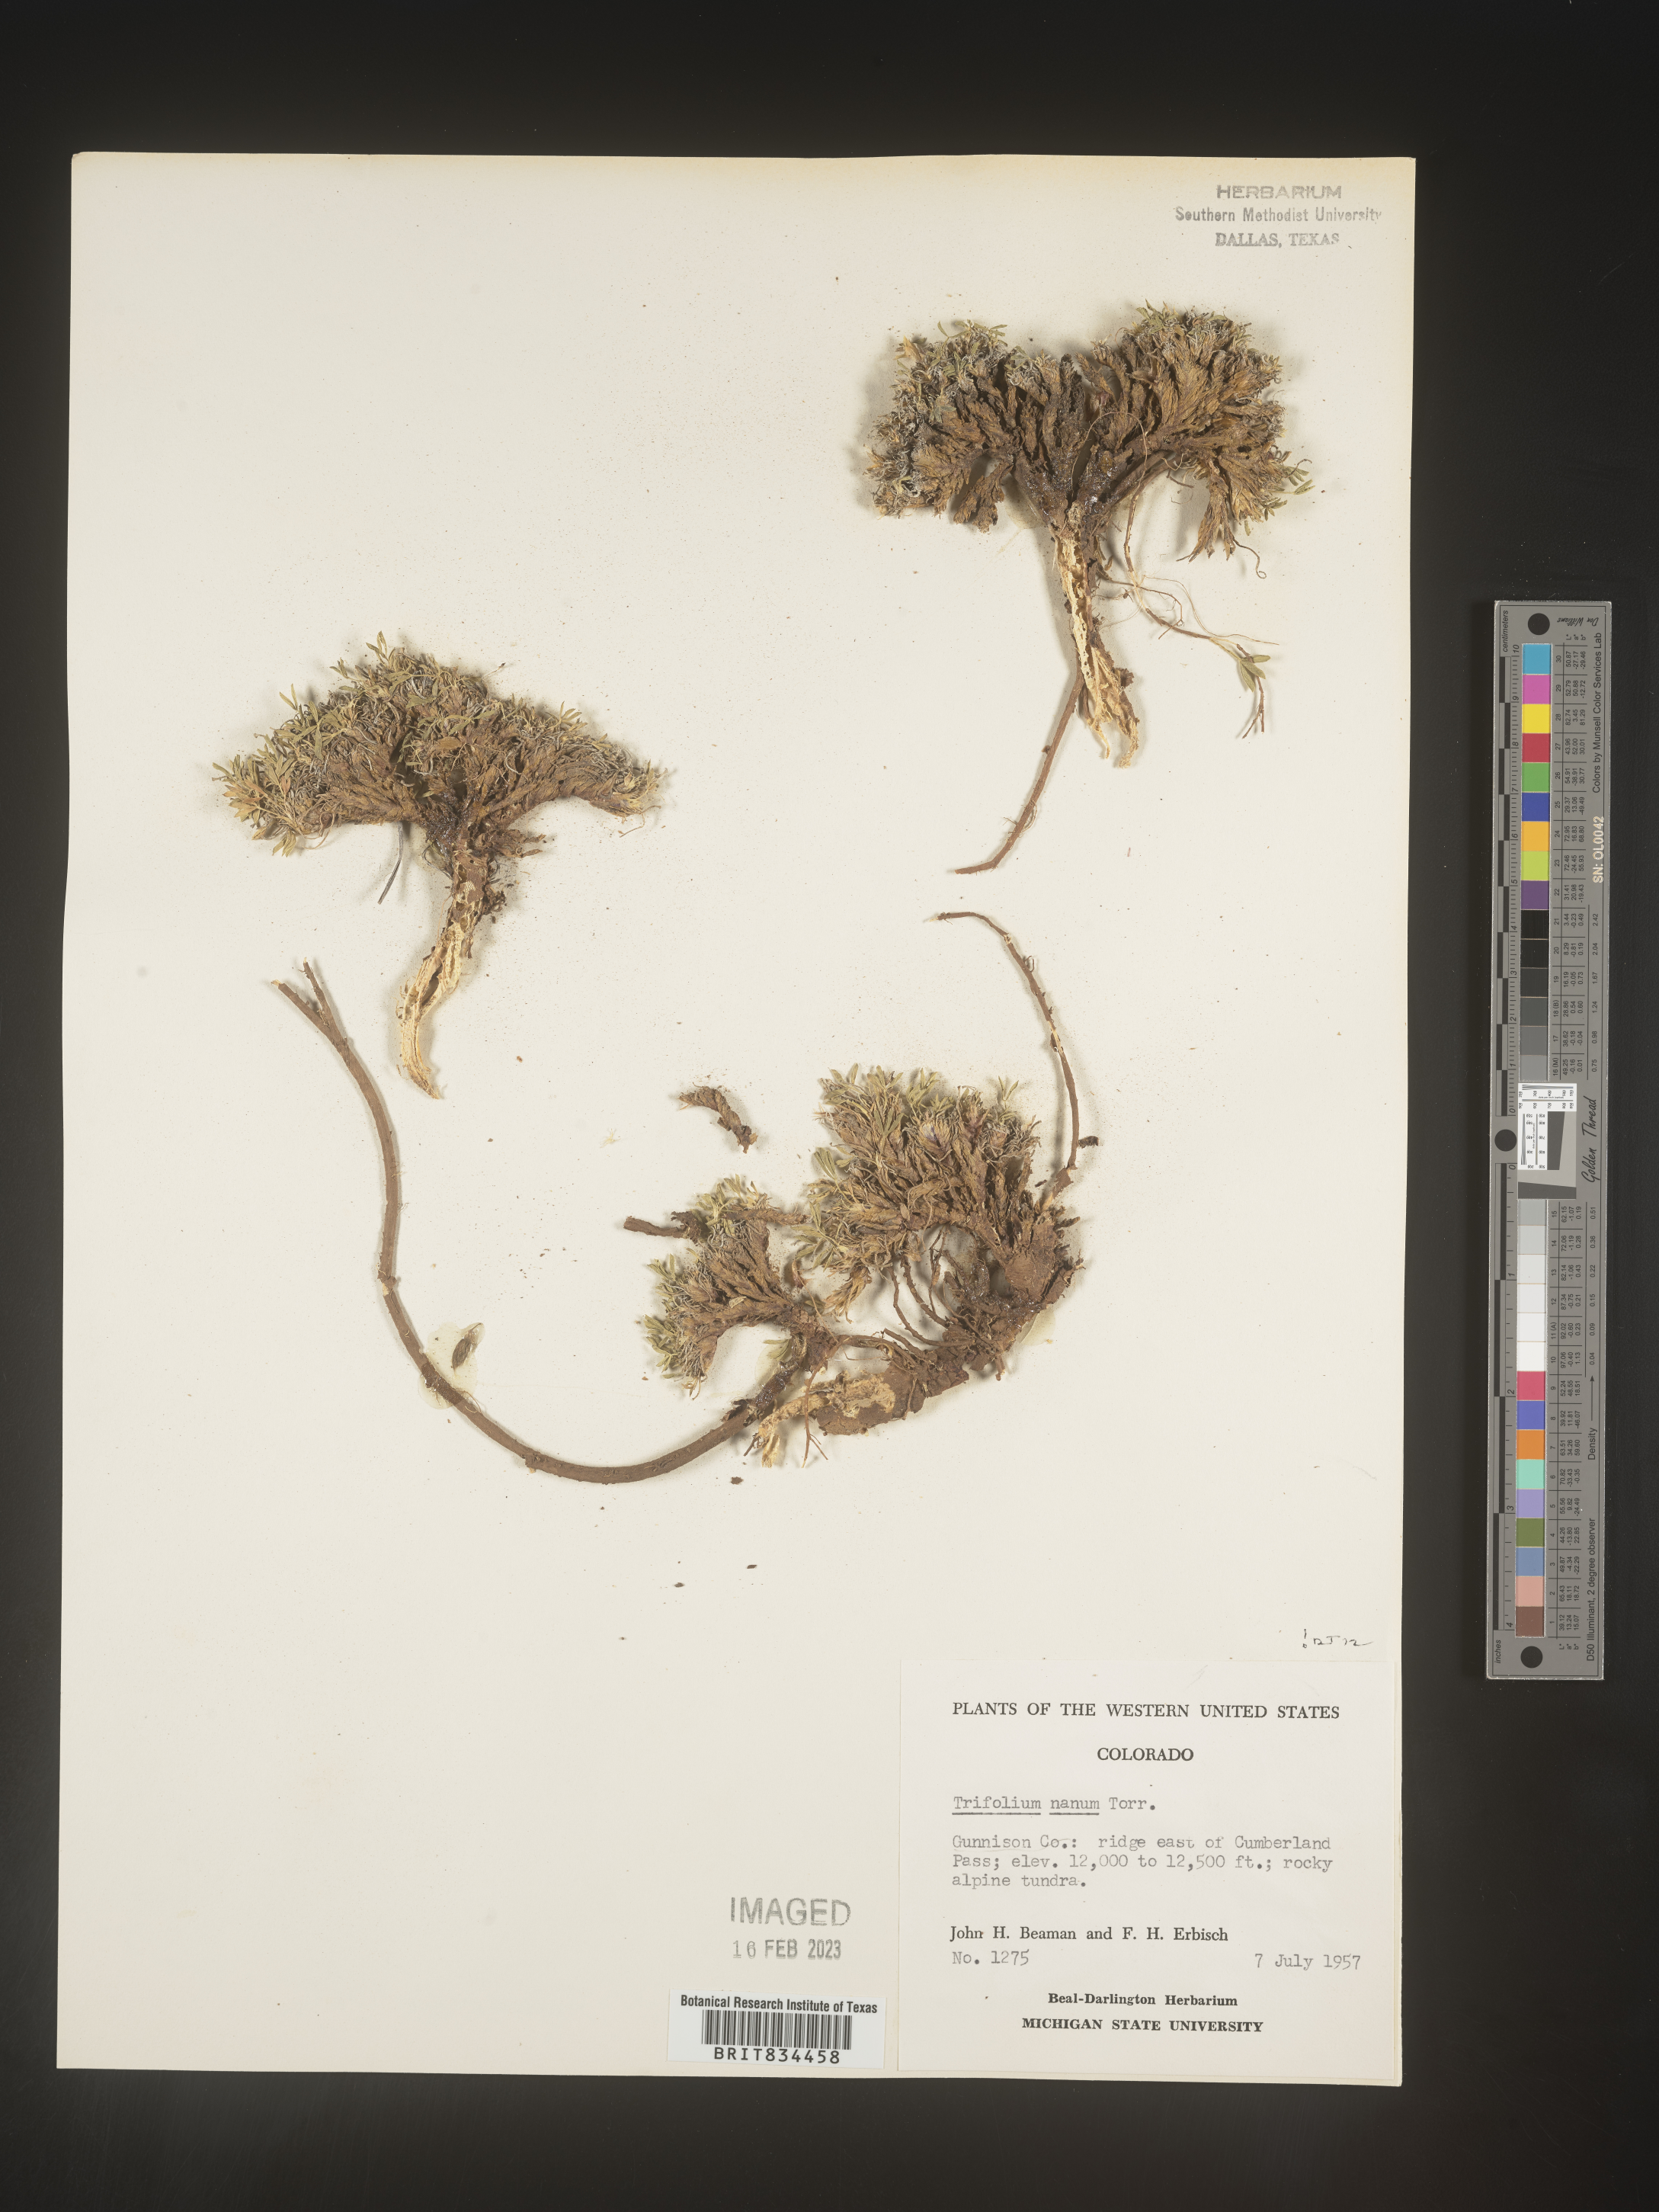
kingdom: Plantae
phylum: Tracheophyta
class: Magnoliopsida
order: Fabales
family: Fabaceae
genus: Trifolium
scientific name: Trifolium
